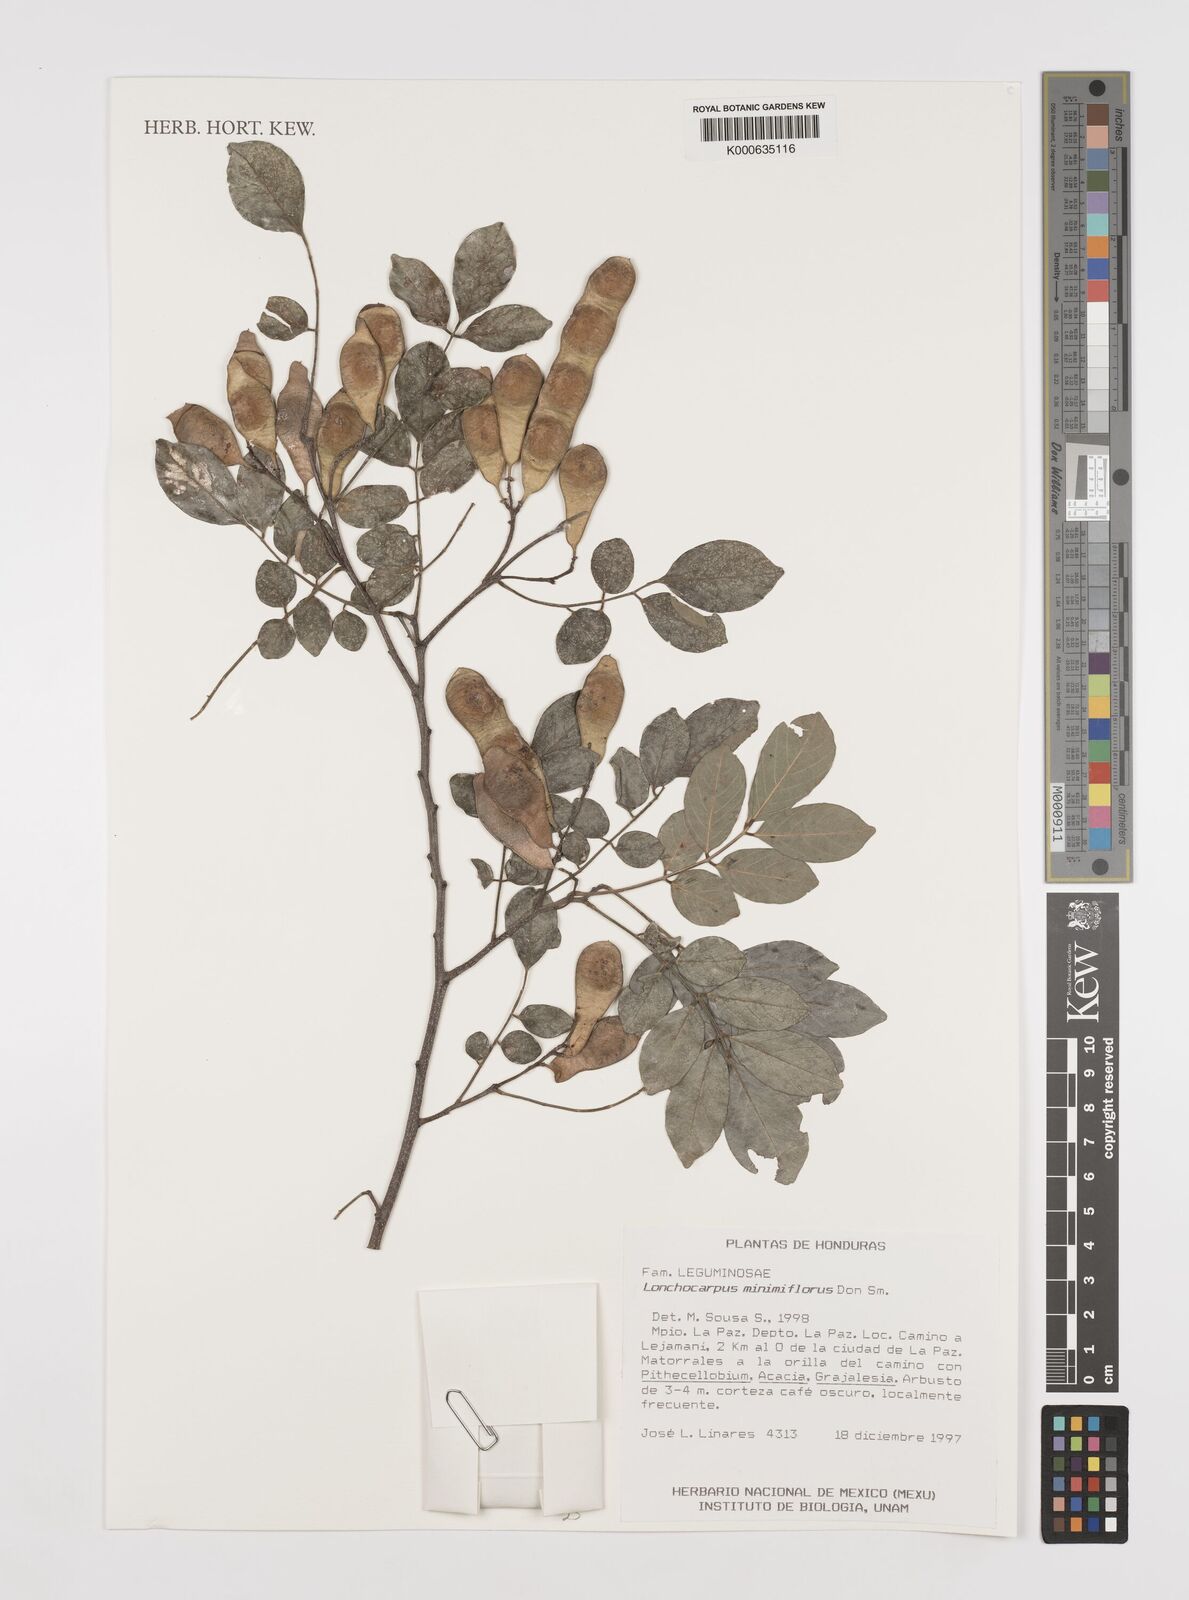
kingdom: Plantae
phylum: Tracheophyta
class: Magnoliopsida
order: Fabales
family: Fabaceae
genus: Lonchocarpus
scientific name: Lonchocarpus minimiflorus
